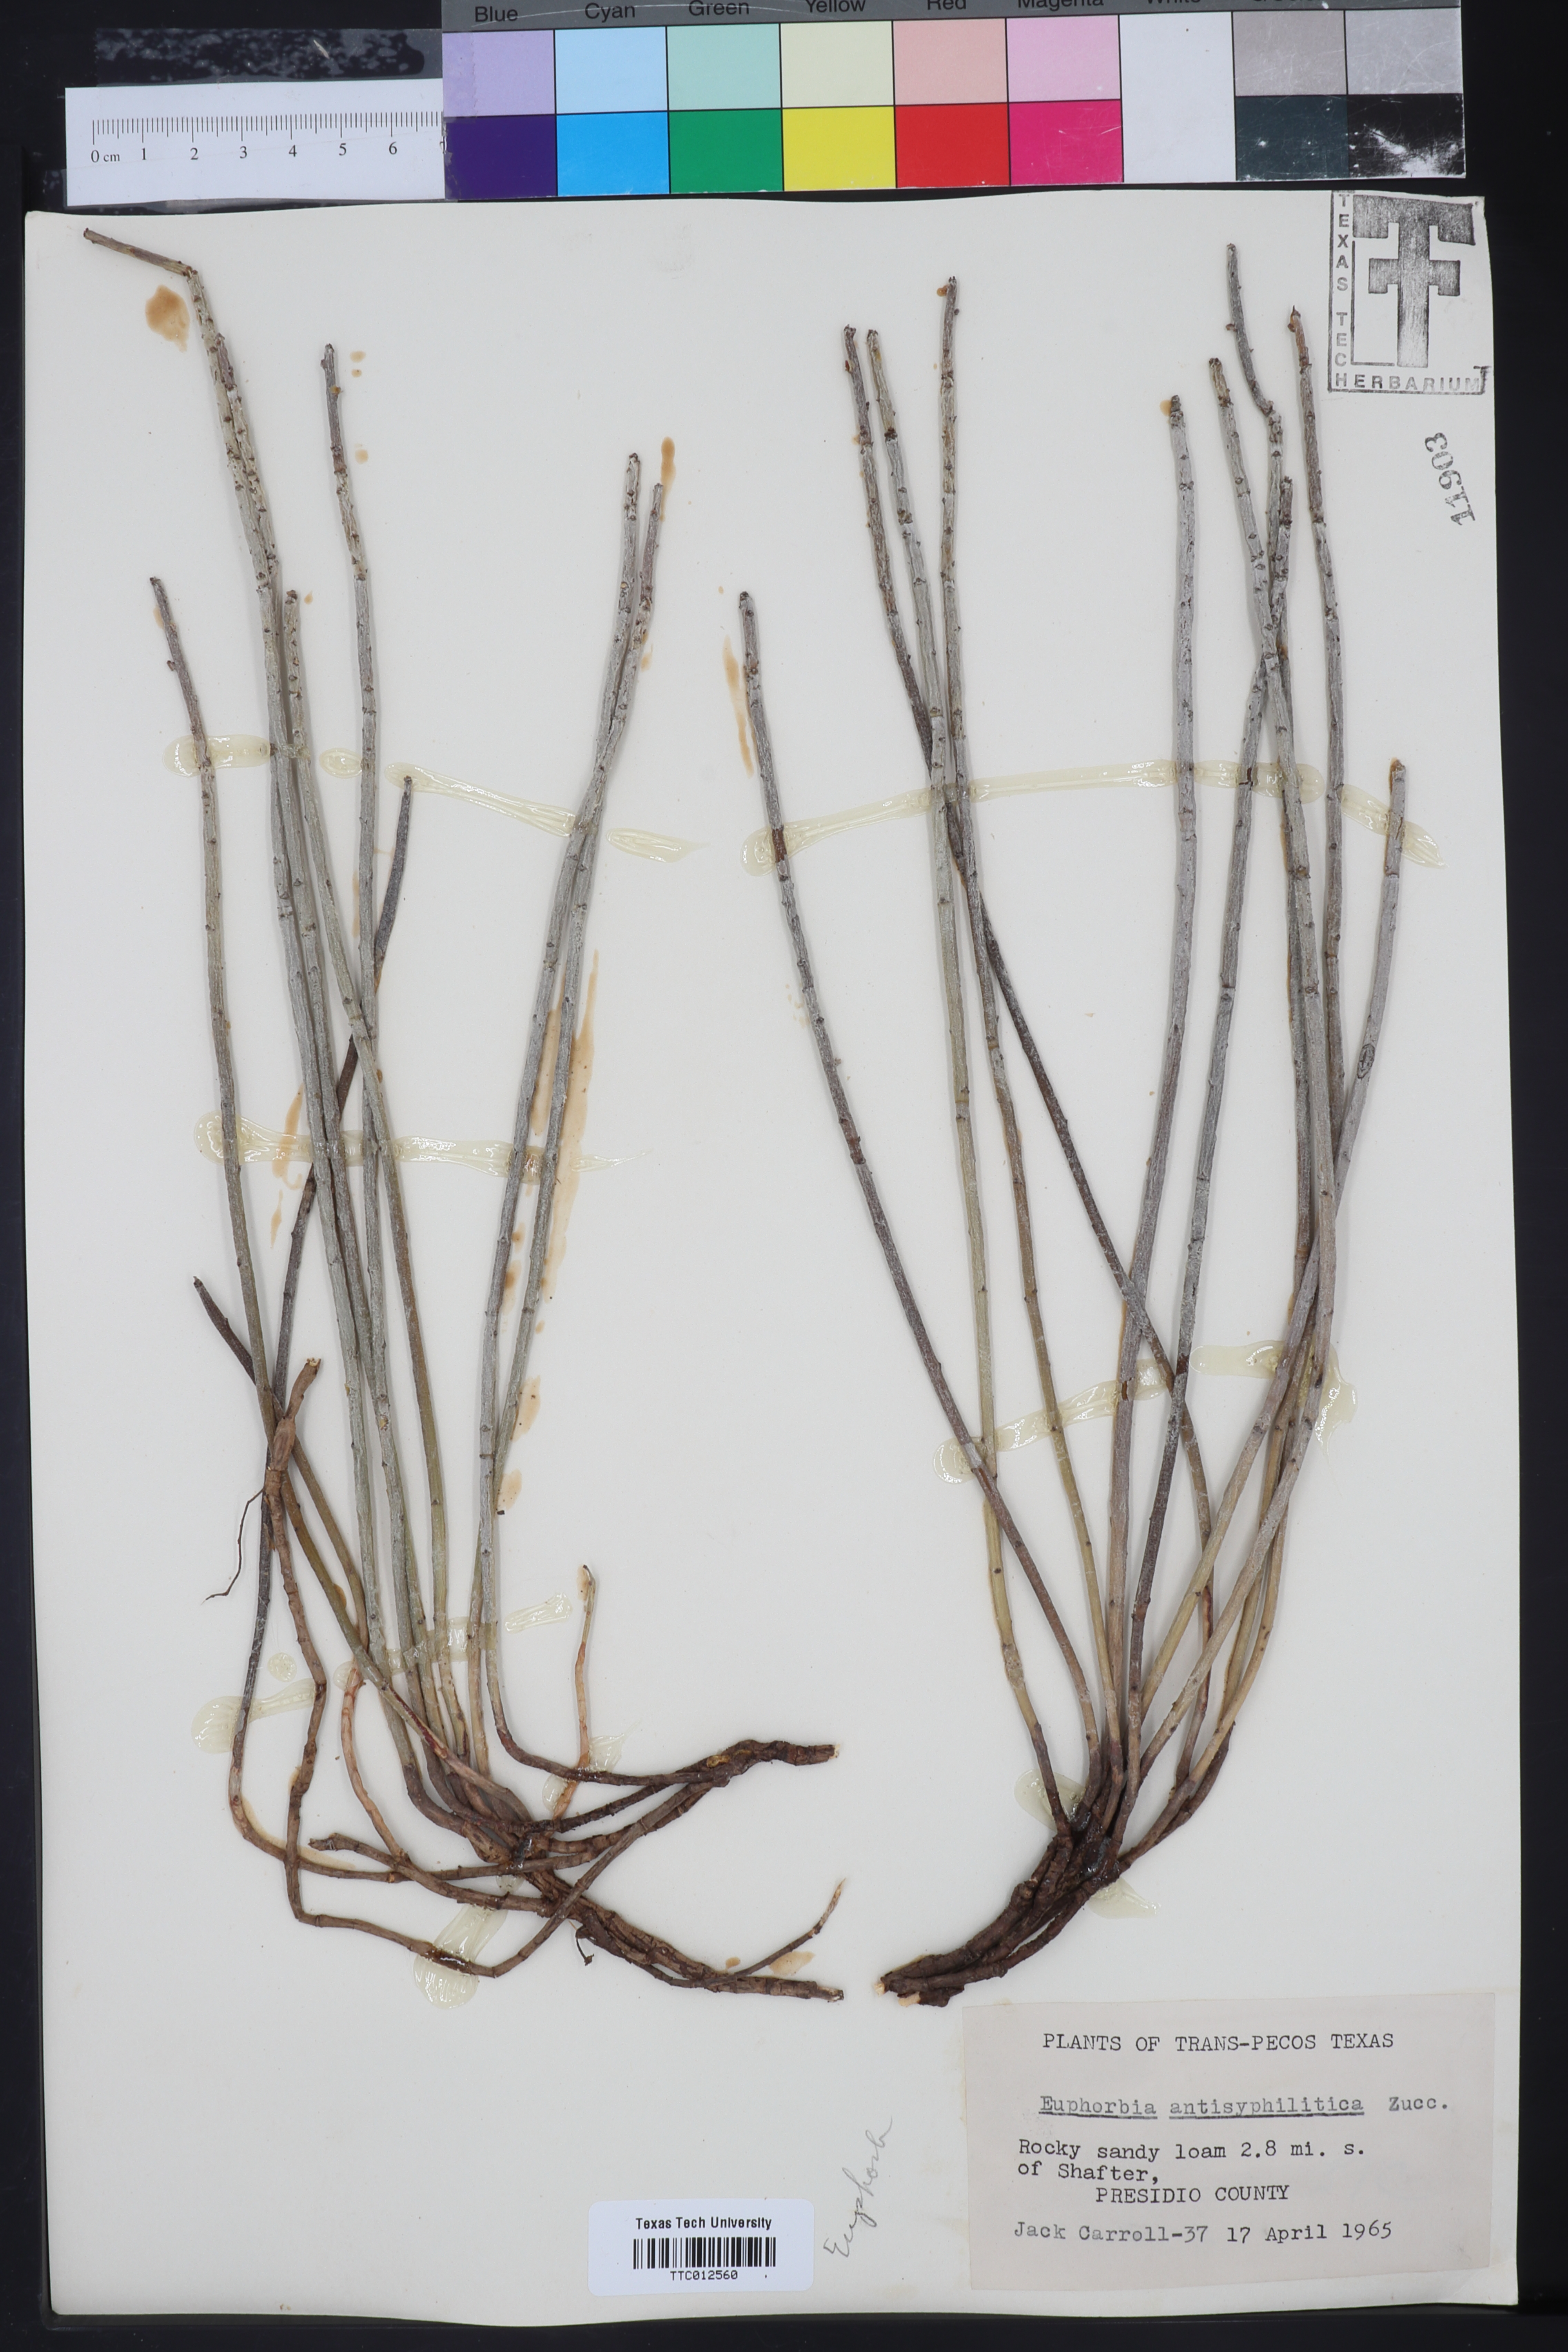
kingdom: Plantae
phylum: Tracheophyta
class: Magnoliopsida
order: Malpighiales
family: Euphorbiaceae
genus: Euphorbia
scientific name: Euphorbia antisyphilitica
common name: Candelilla
